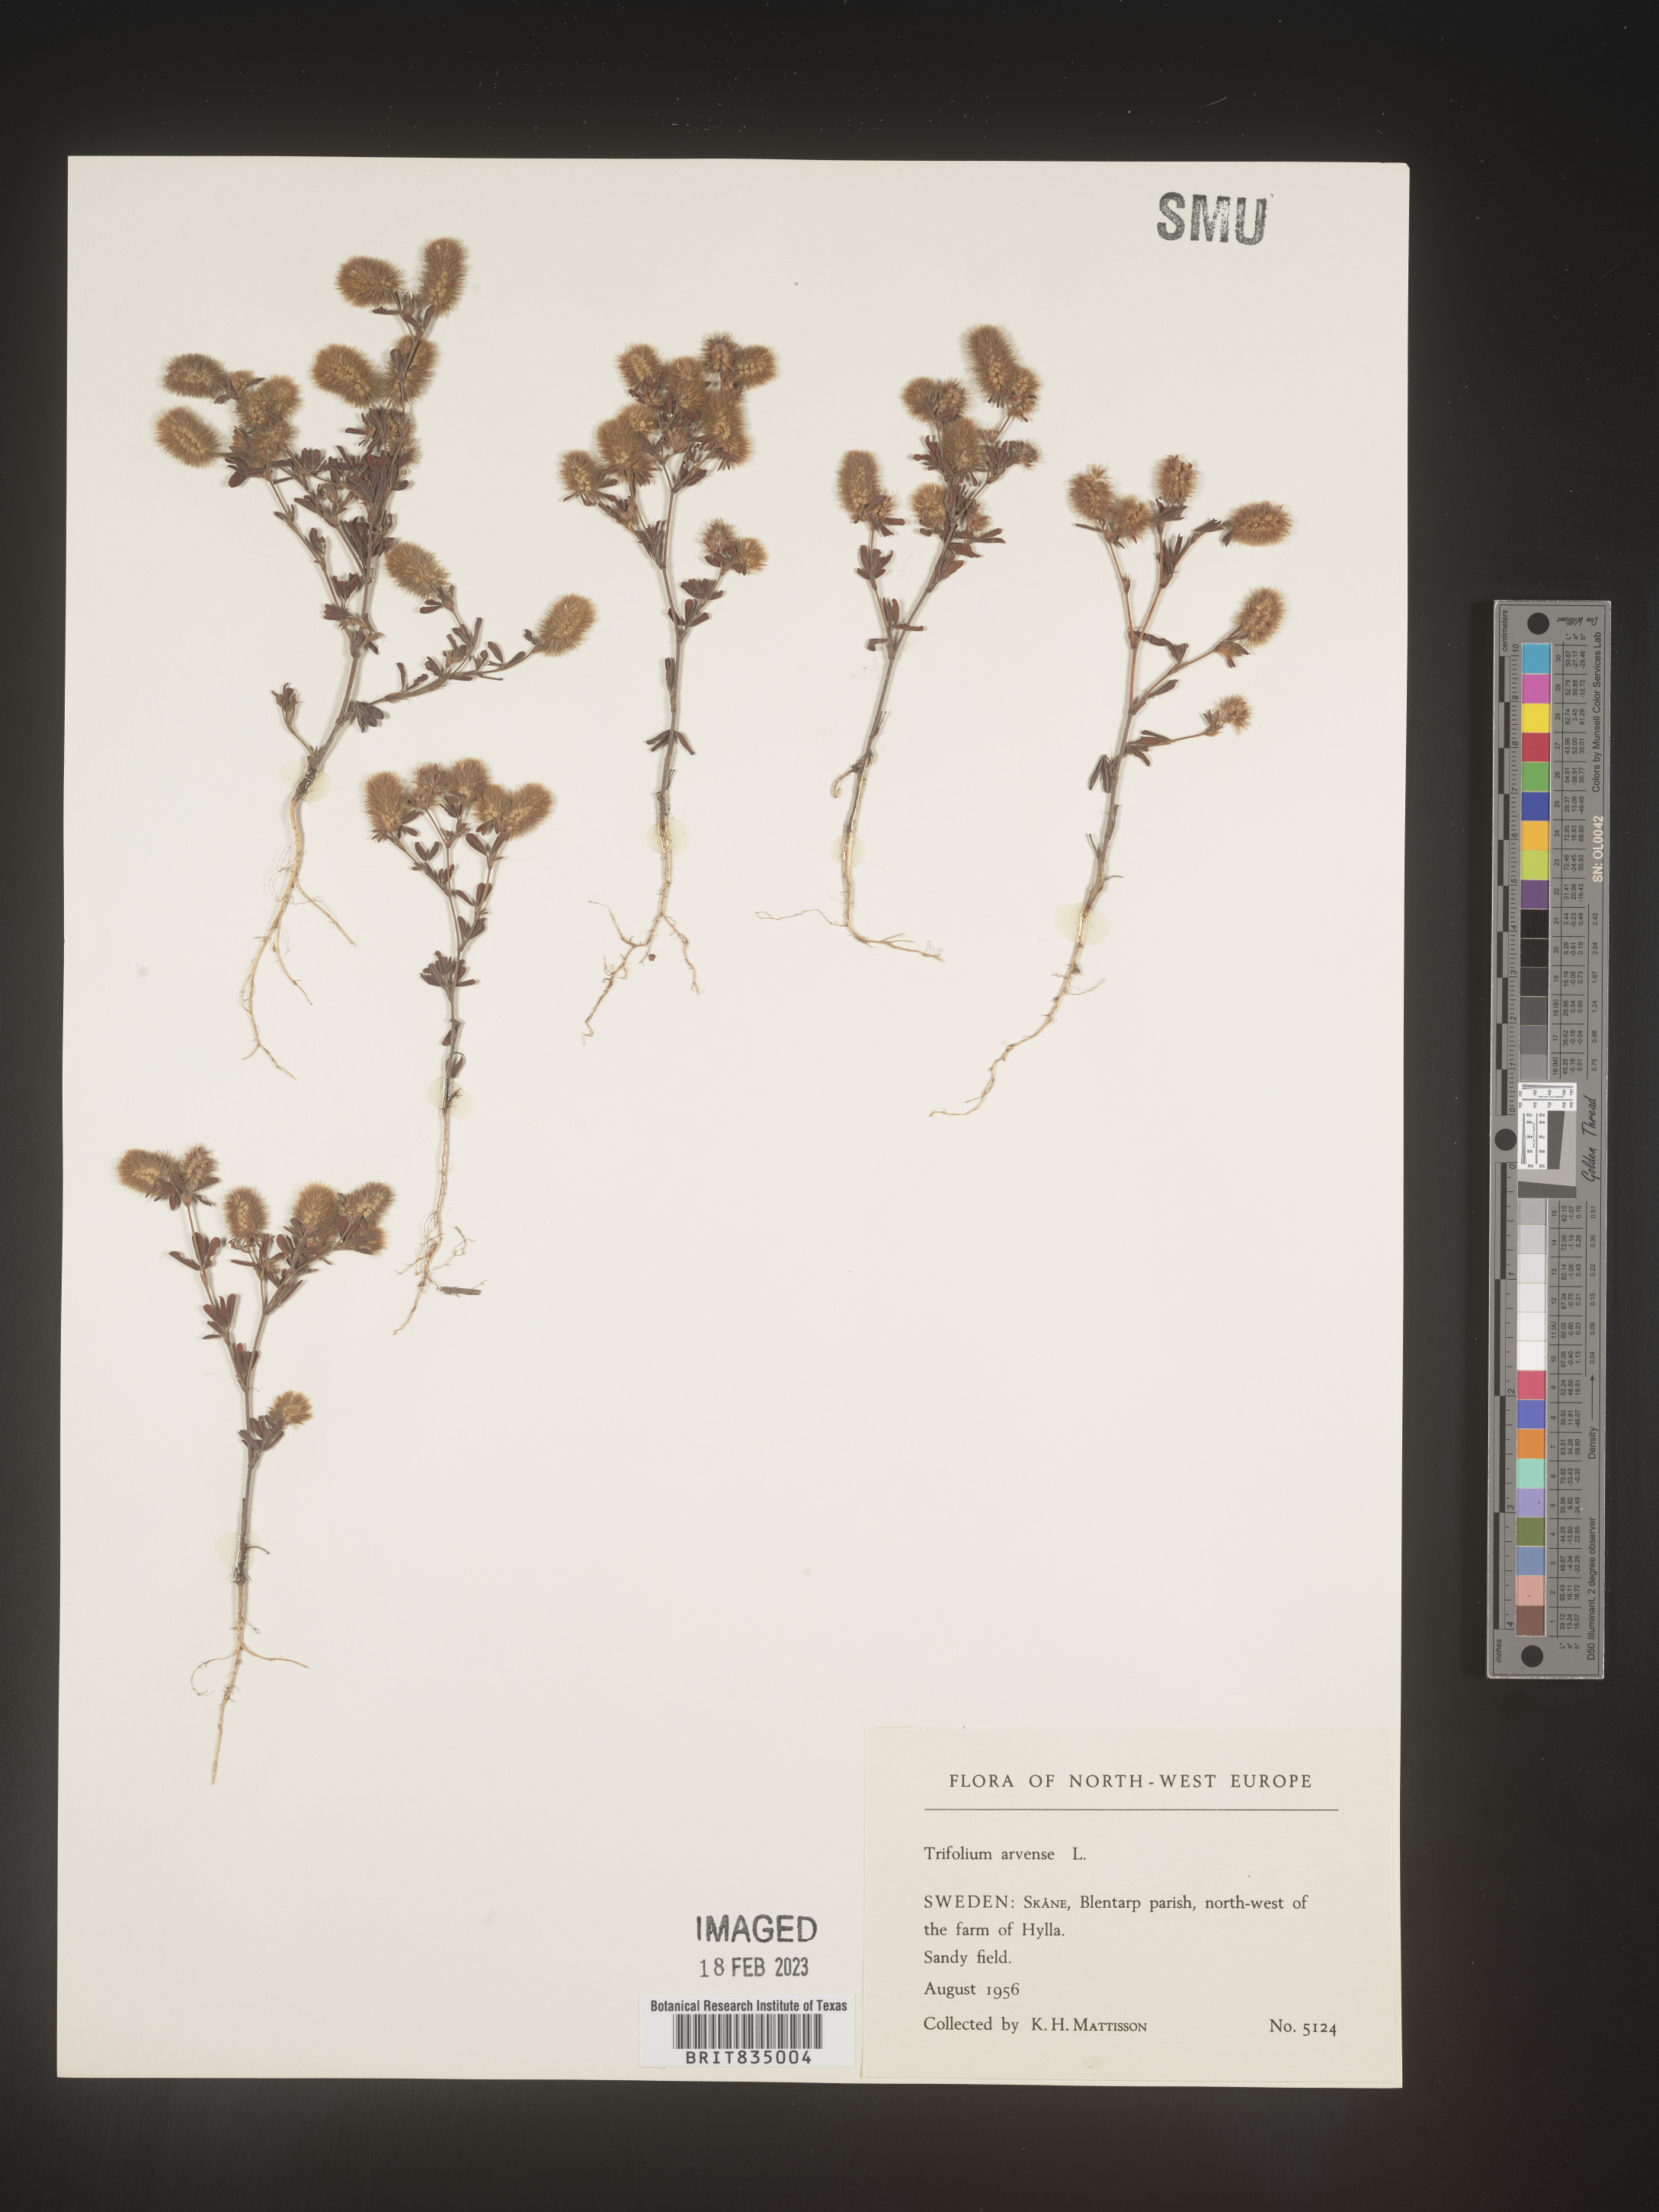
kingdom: Plantae
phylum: Tracheophyta
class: Magnoliopsida
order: Fabales
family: Fabaceae
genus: Trifolium
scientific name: Trifolium
